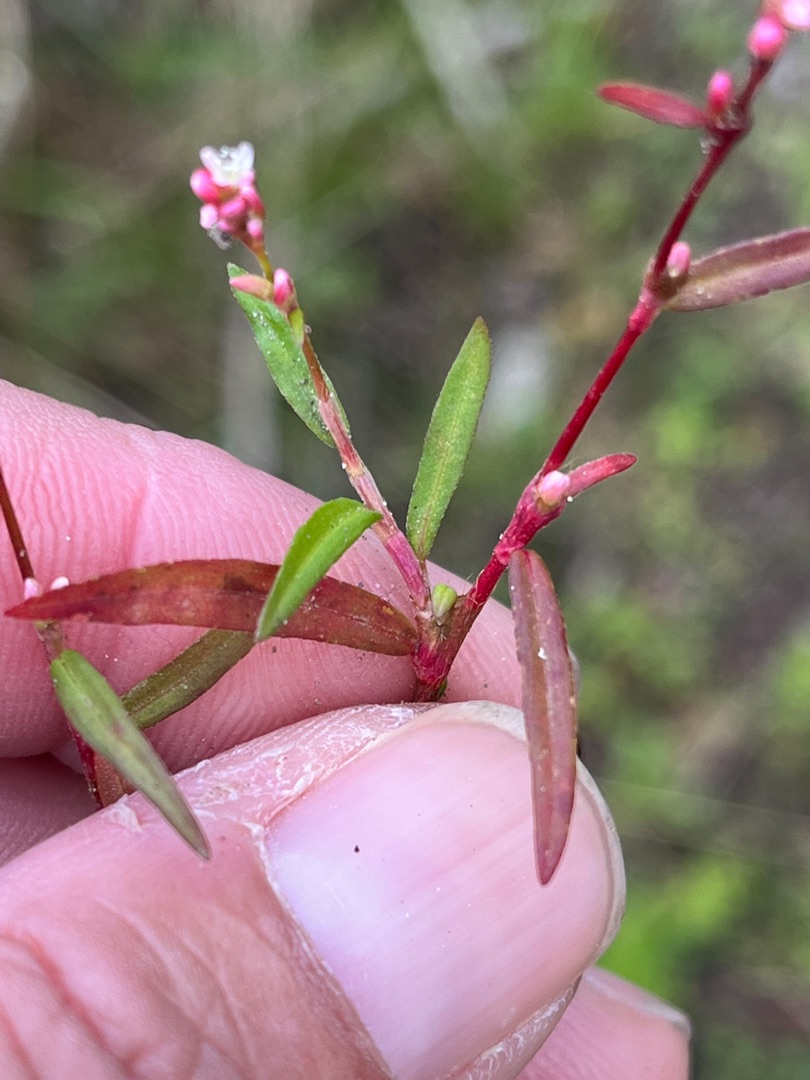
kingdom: Plantae
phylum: Tracheophyta
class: Magnoliopsida
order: Caryophyllales
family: Polygonaceae
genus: Persicaria
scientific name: Persicaria minor
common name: Liden pileurt
